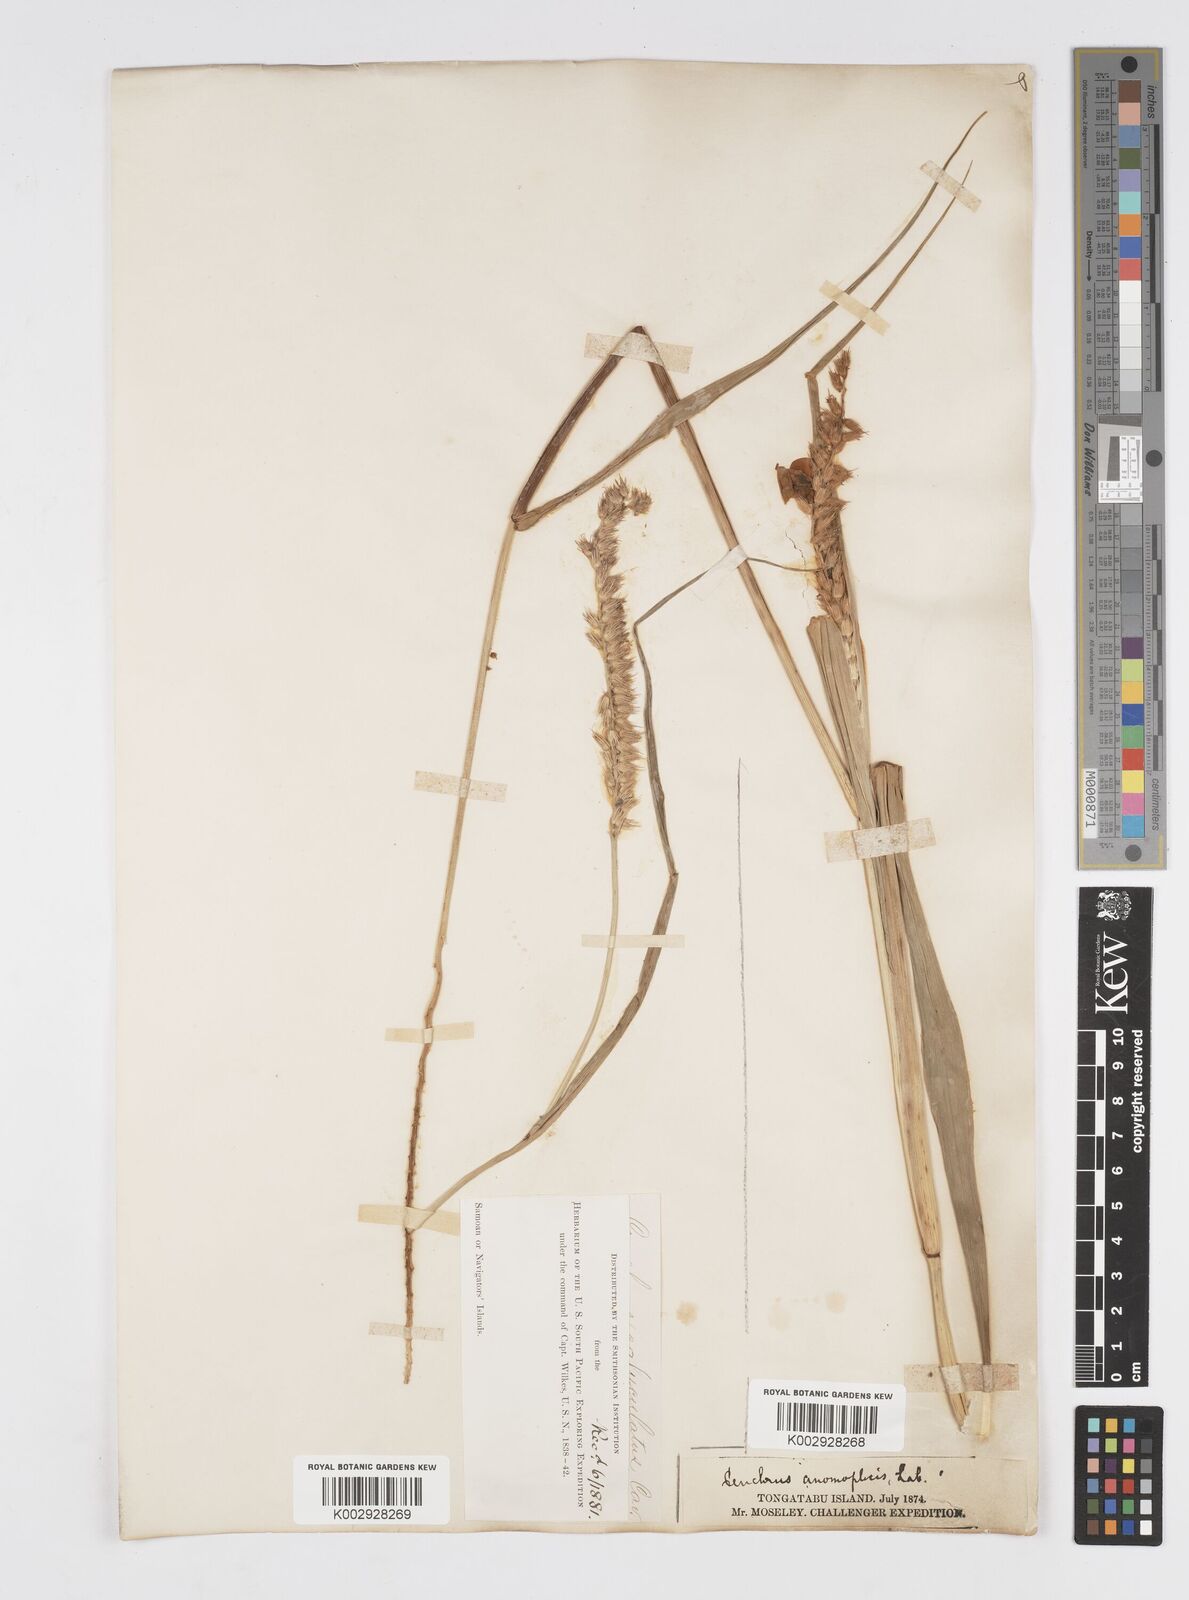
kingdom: Plantae
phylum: Tracheophyta
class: Liliopsida
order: Poales
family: Poaceae
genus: Cenchrus
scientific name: Cenchrus caliculatus
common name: Large bur grass
